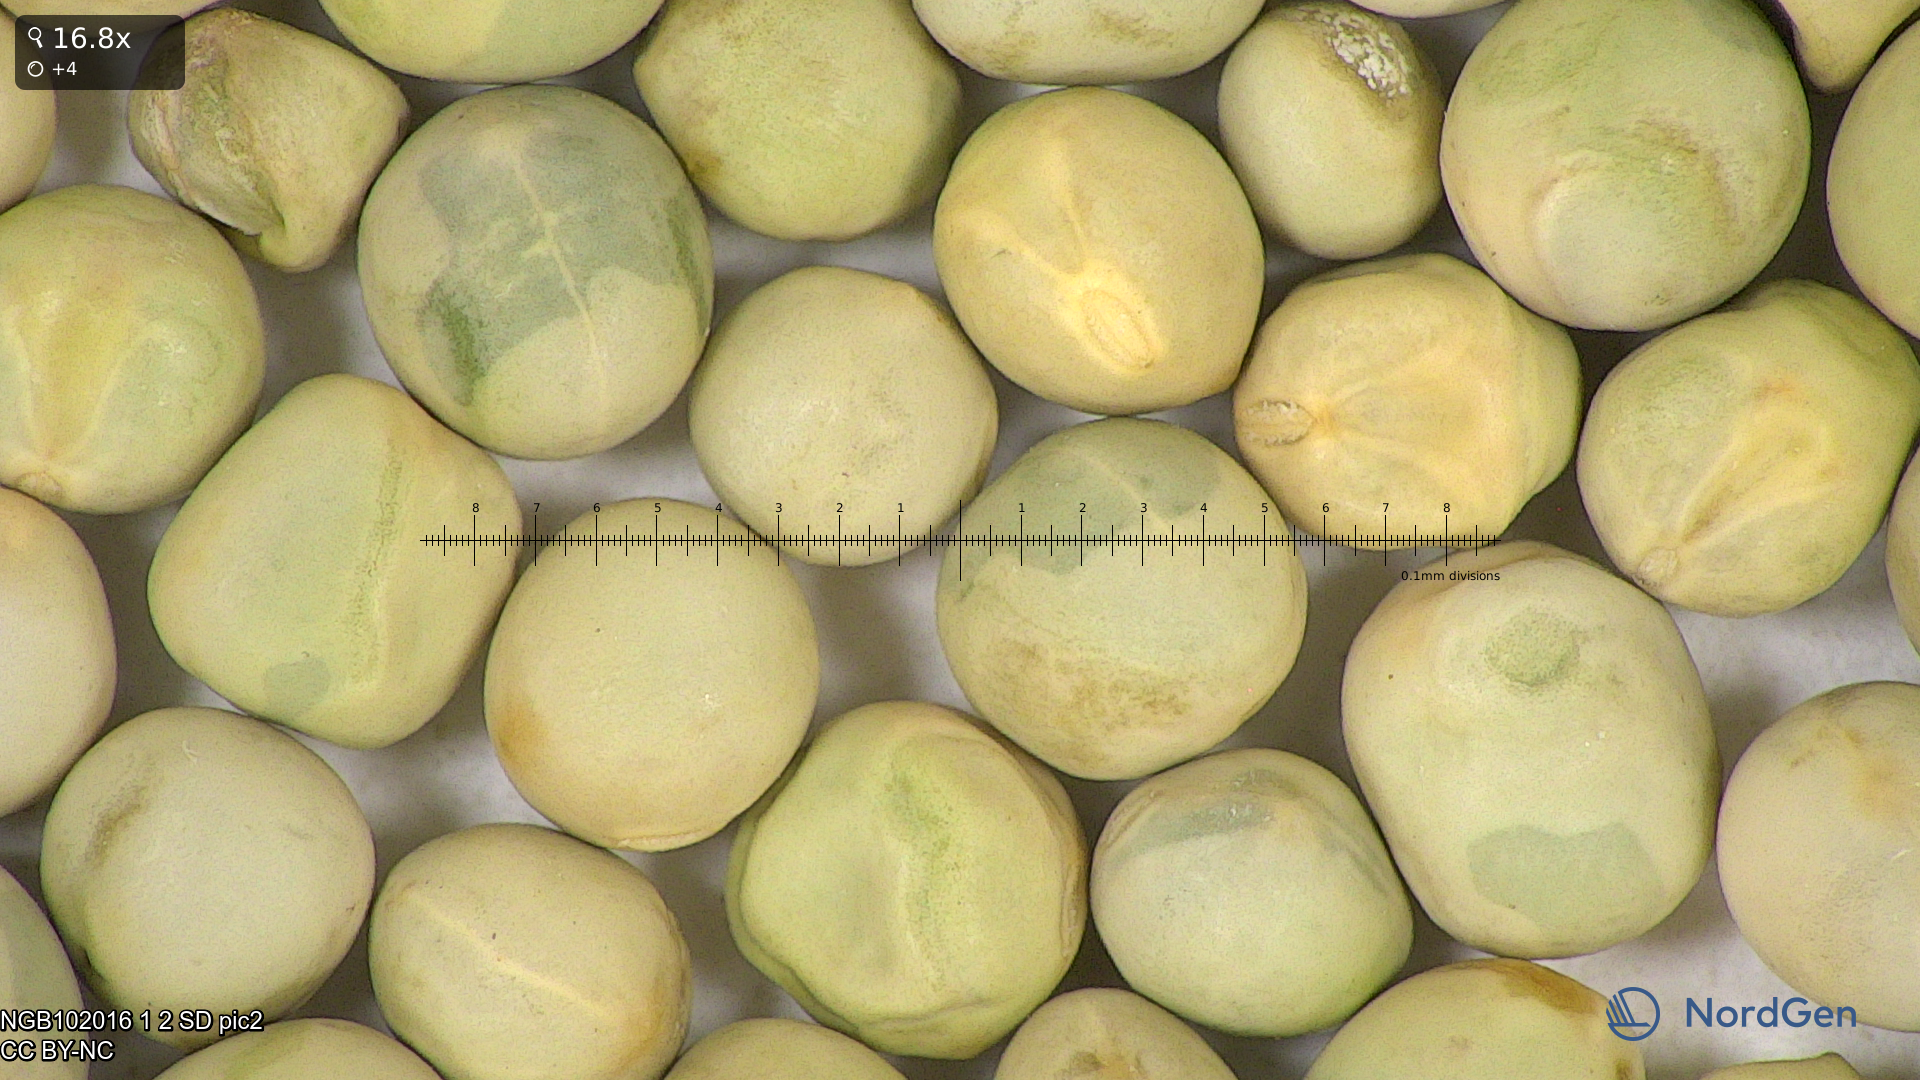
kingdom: Plantae
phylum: Tracheophyta
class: Magnoliopsida
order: Fabales
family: Fabaceae
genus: Lathyrus
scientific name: Lathyrus oleraceus
